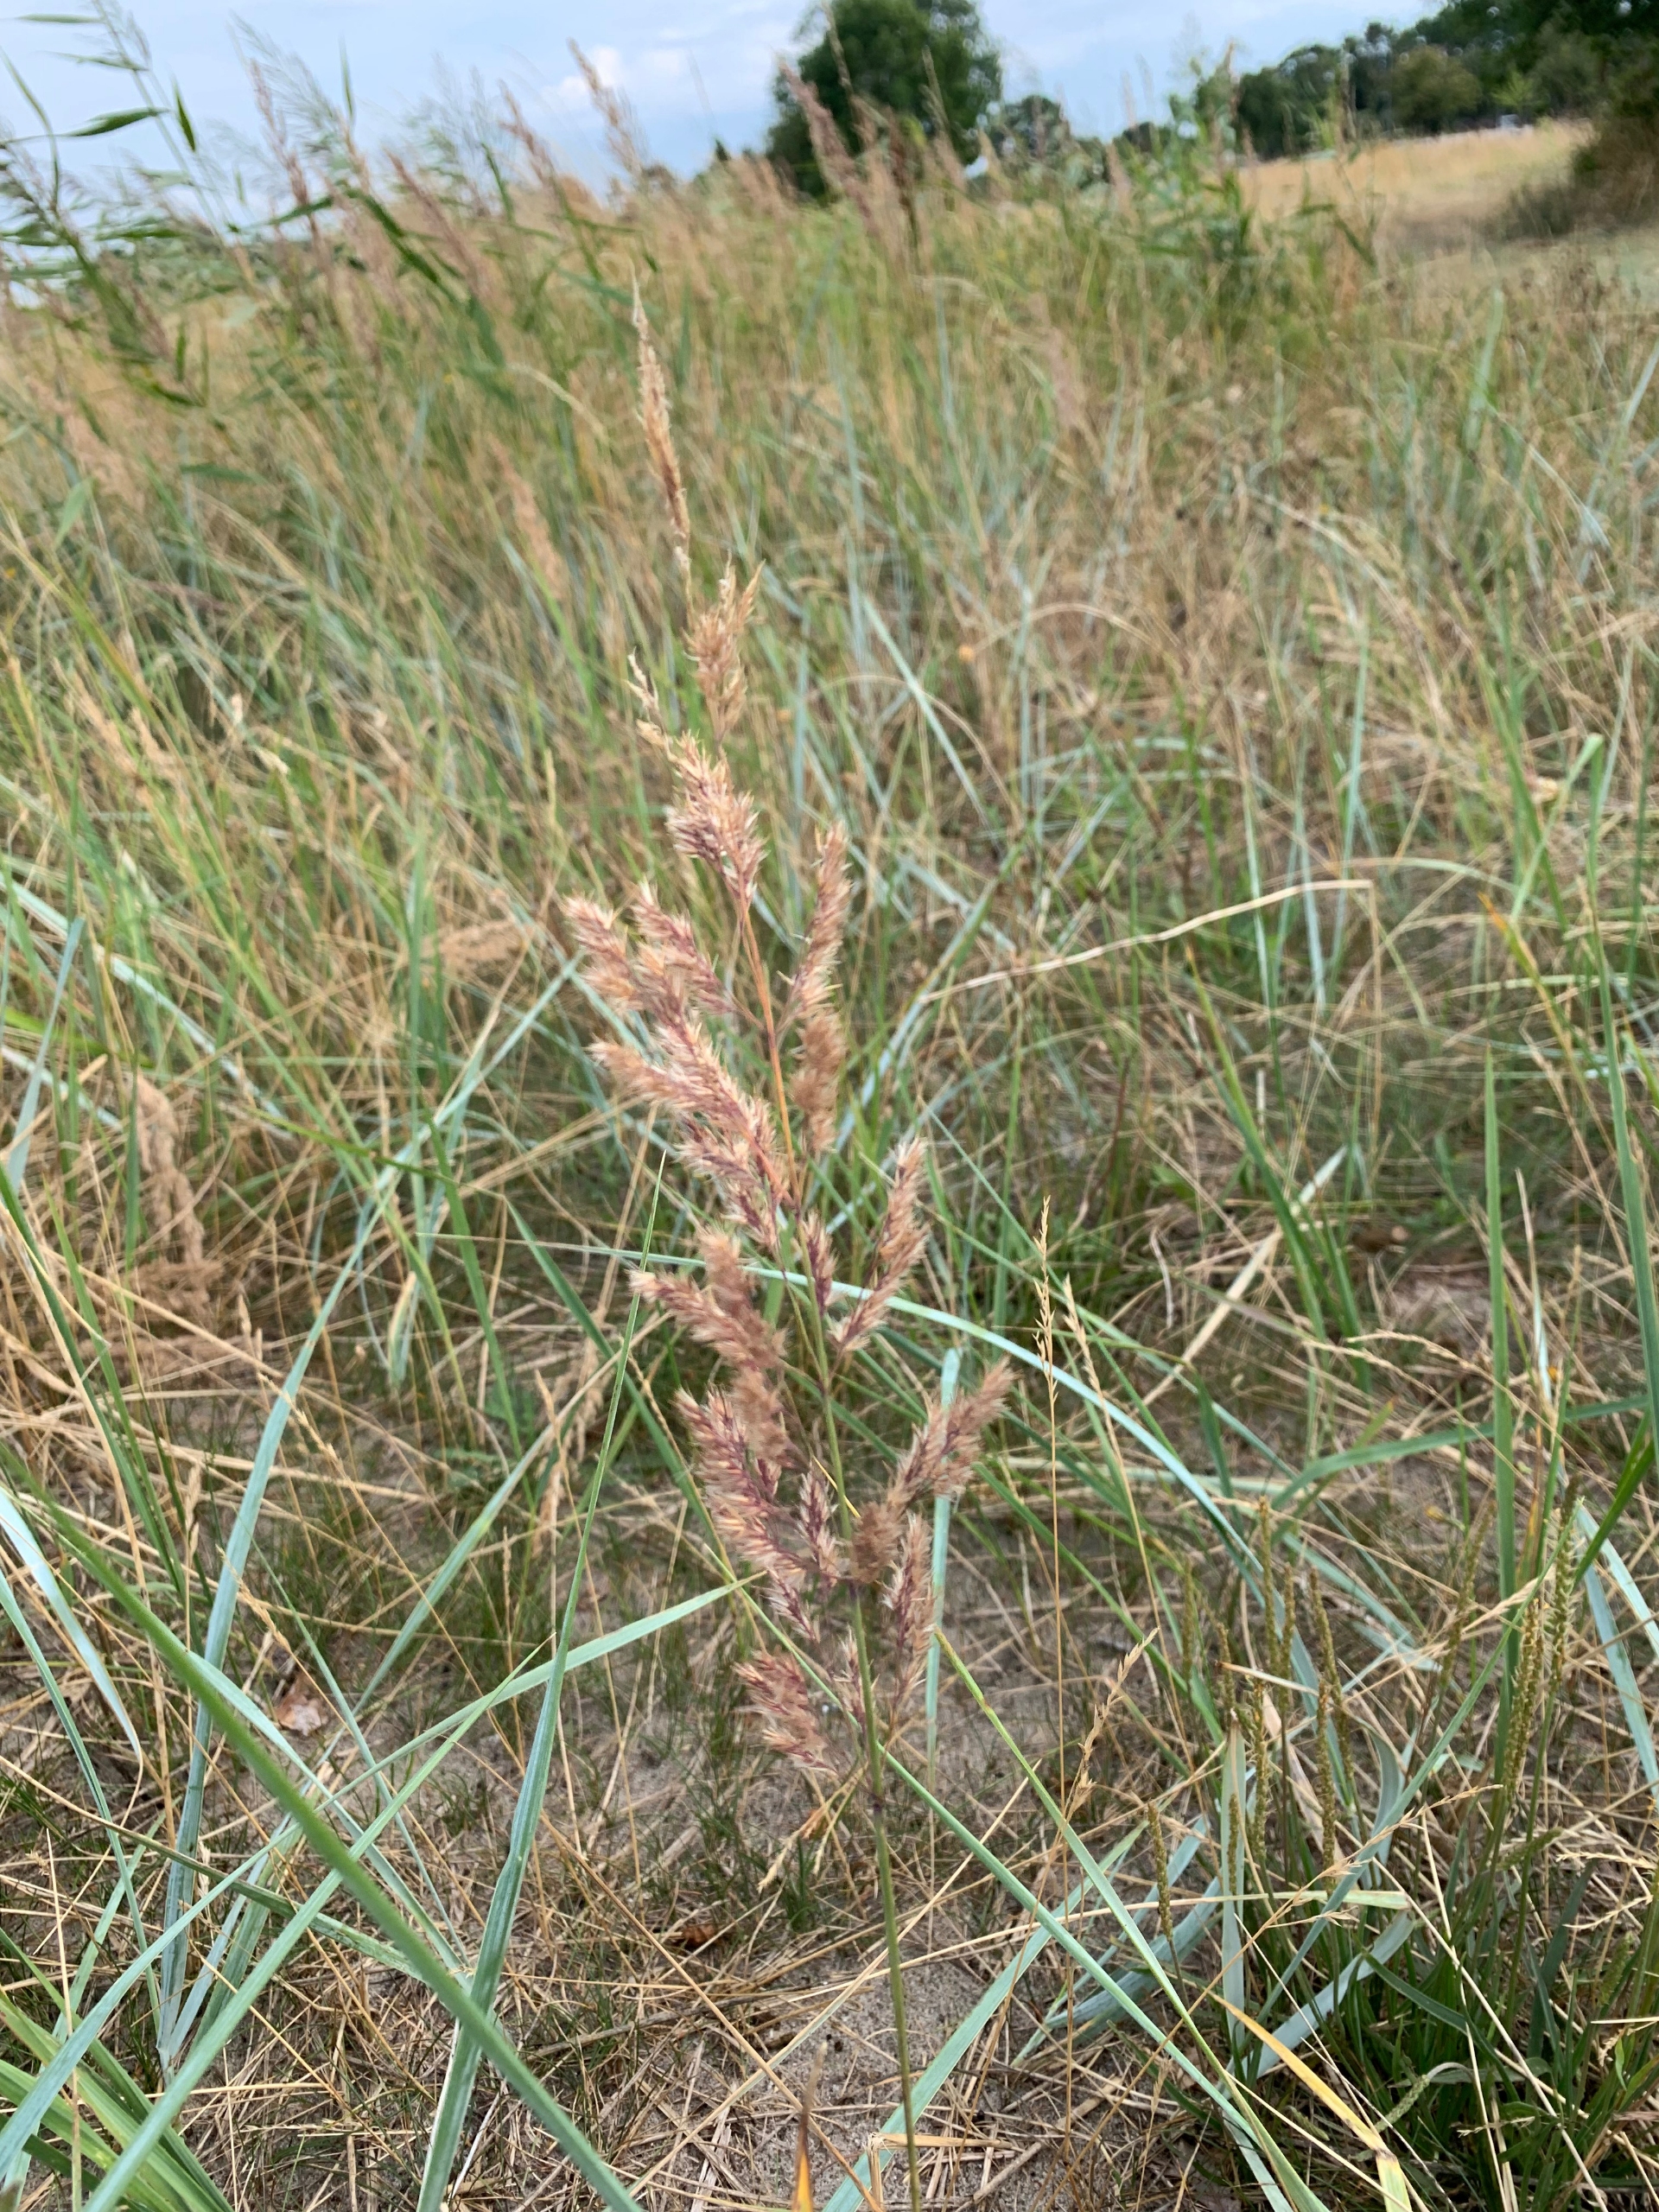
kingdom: Plantae
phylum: Tracheophyta
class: Liliopsida
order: Poales
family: Poaceae
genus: Calamagrostis
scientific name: Calamagrostis epigejos
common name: Bjerg-rørhvene
